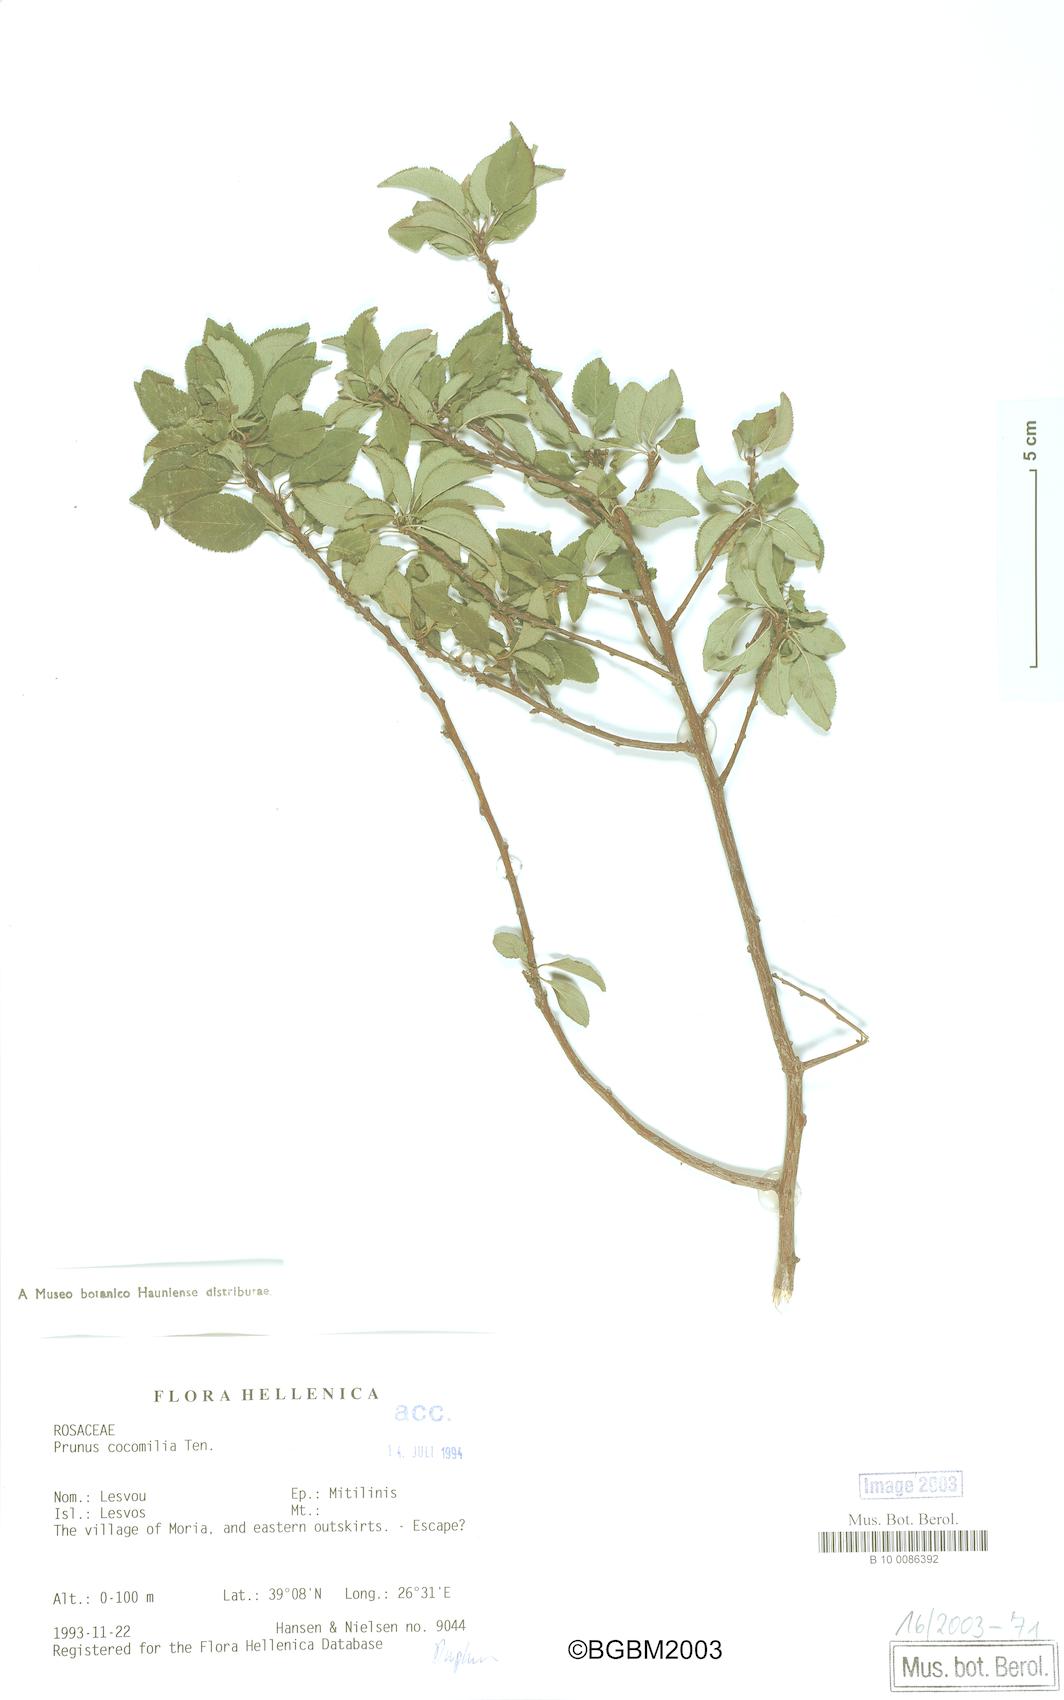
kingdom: Plantae
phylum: Tracheophyta
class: Magnoliopsida
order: Rosales
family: Rosaceae
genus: Prunus
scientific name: Prunus cocomilia
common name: Italian plum
